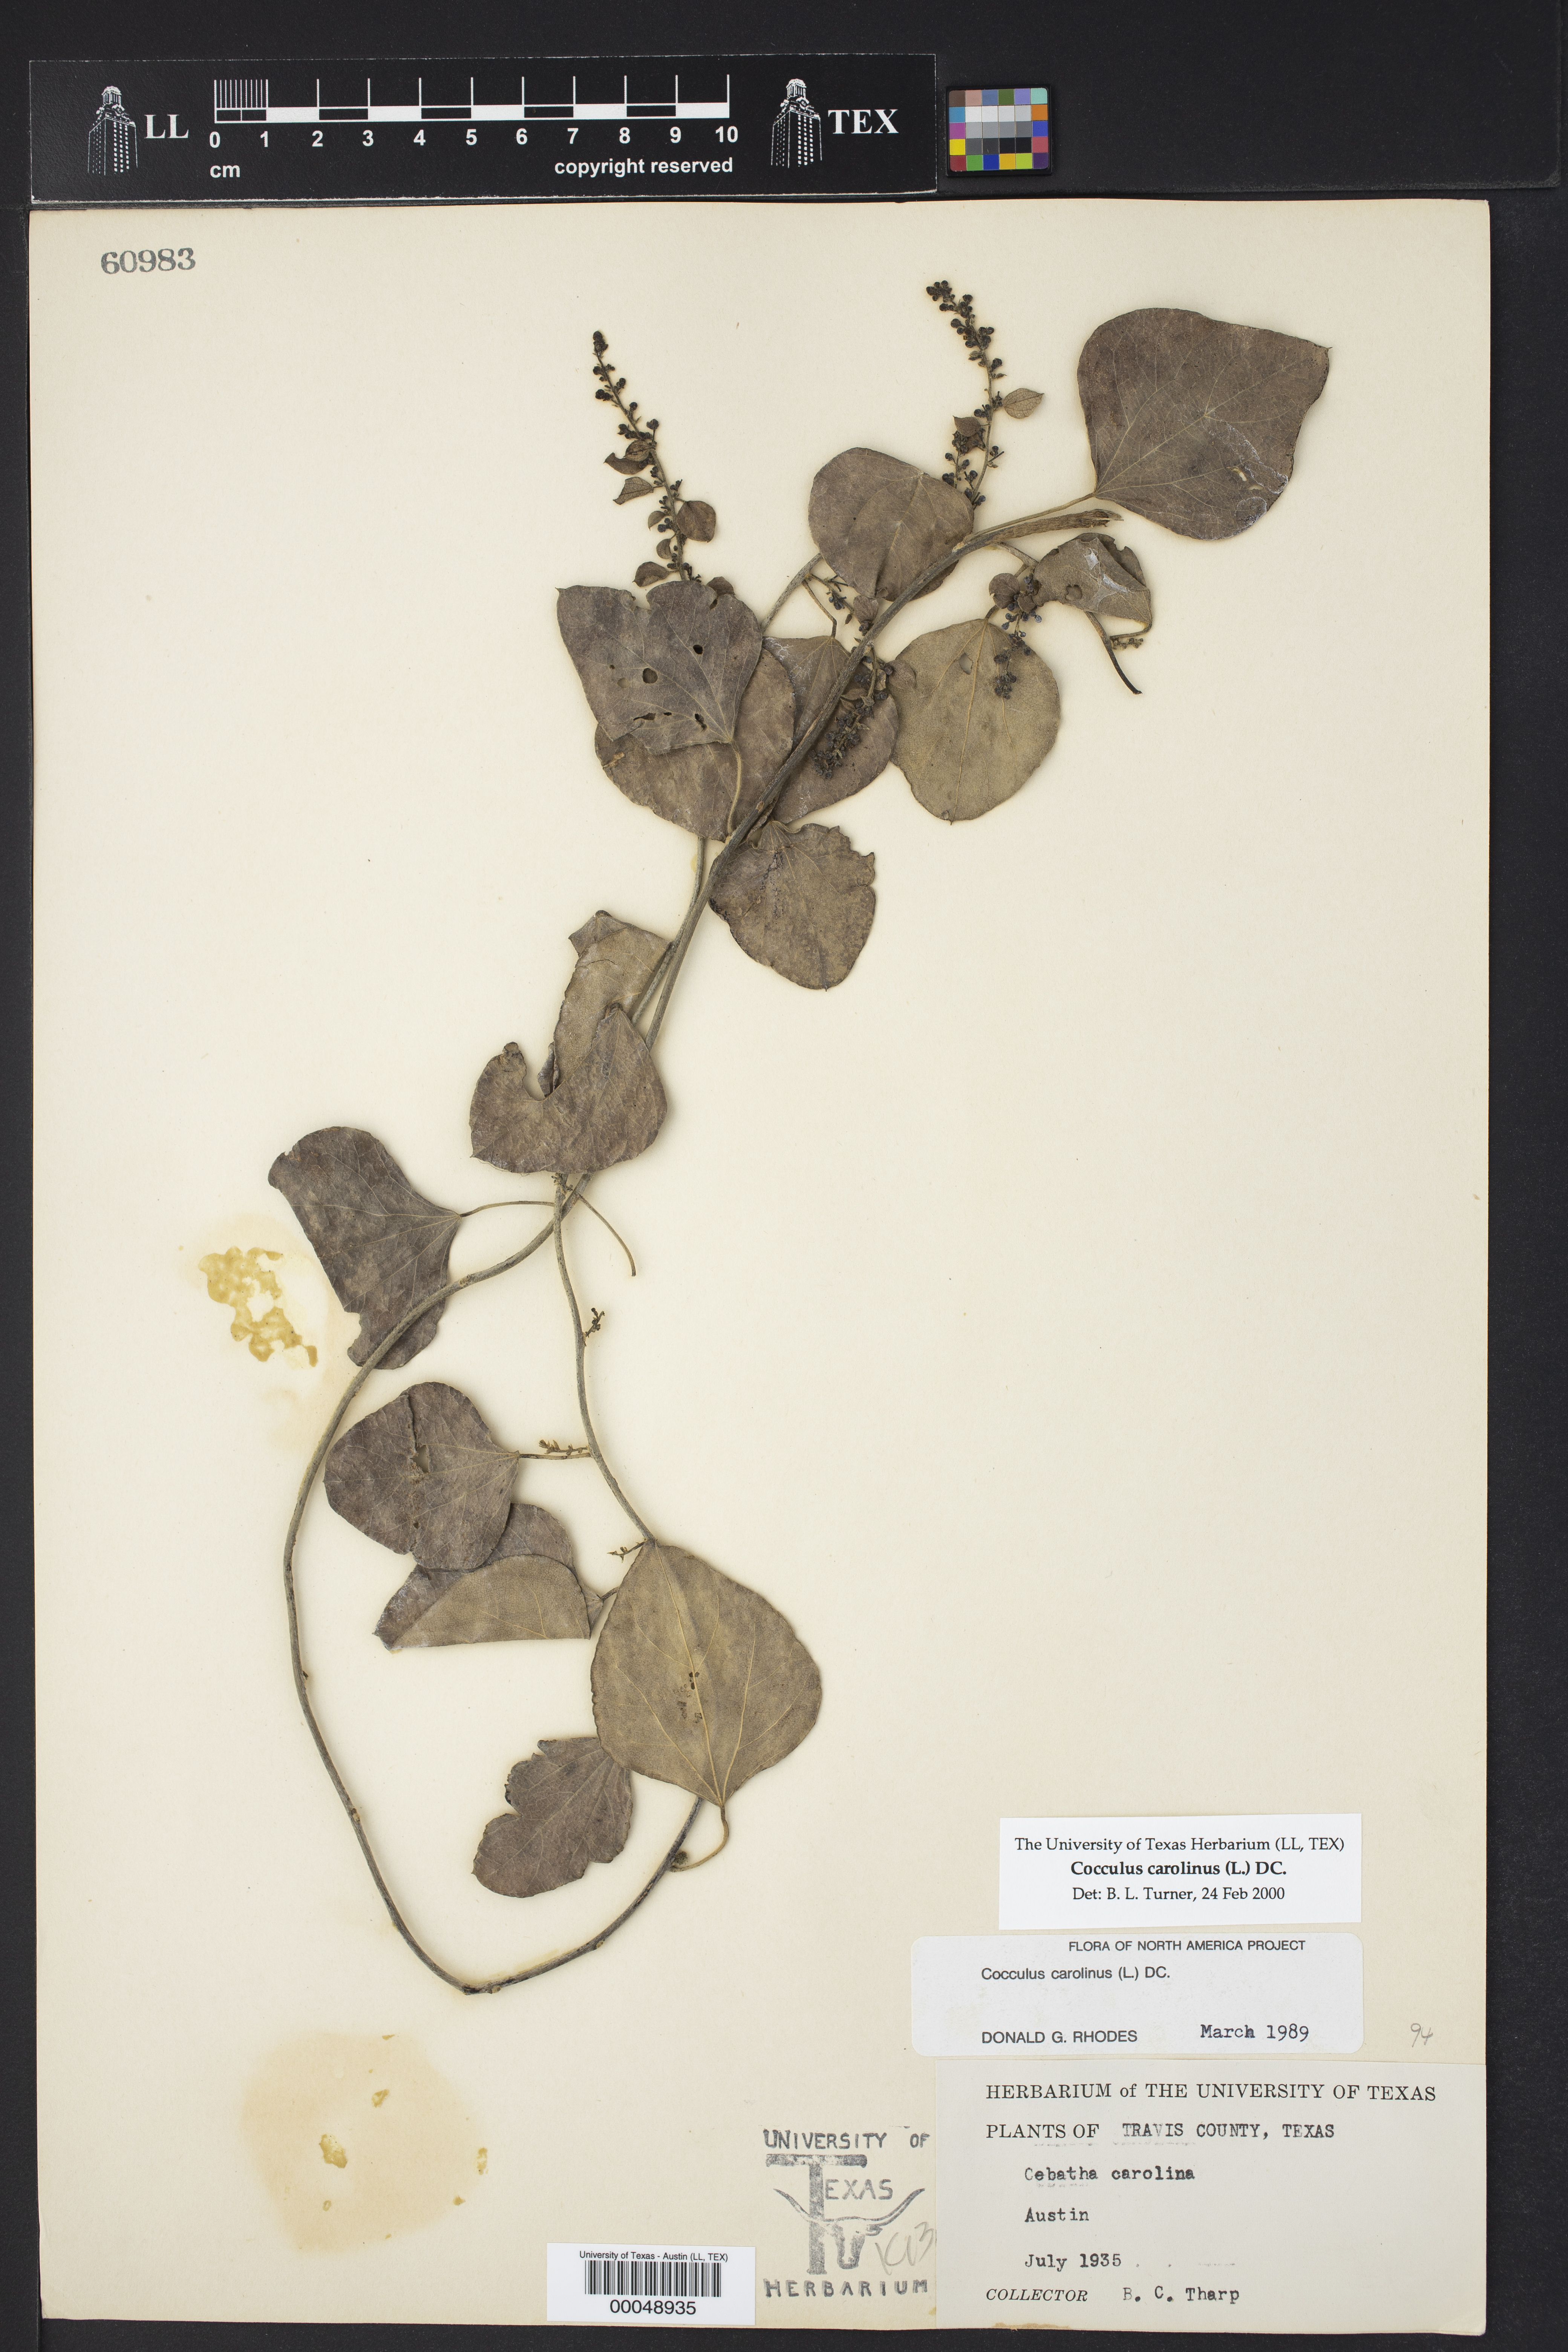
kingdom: Plantae
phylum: Tracheophyta
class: Magnoliopsida
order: Ranunculales
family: Menispermaceae
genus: Cocculus
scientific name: Cocculus carolinus
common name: Carolina moonseed
